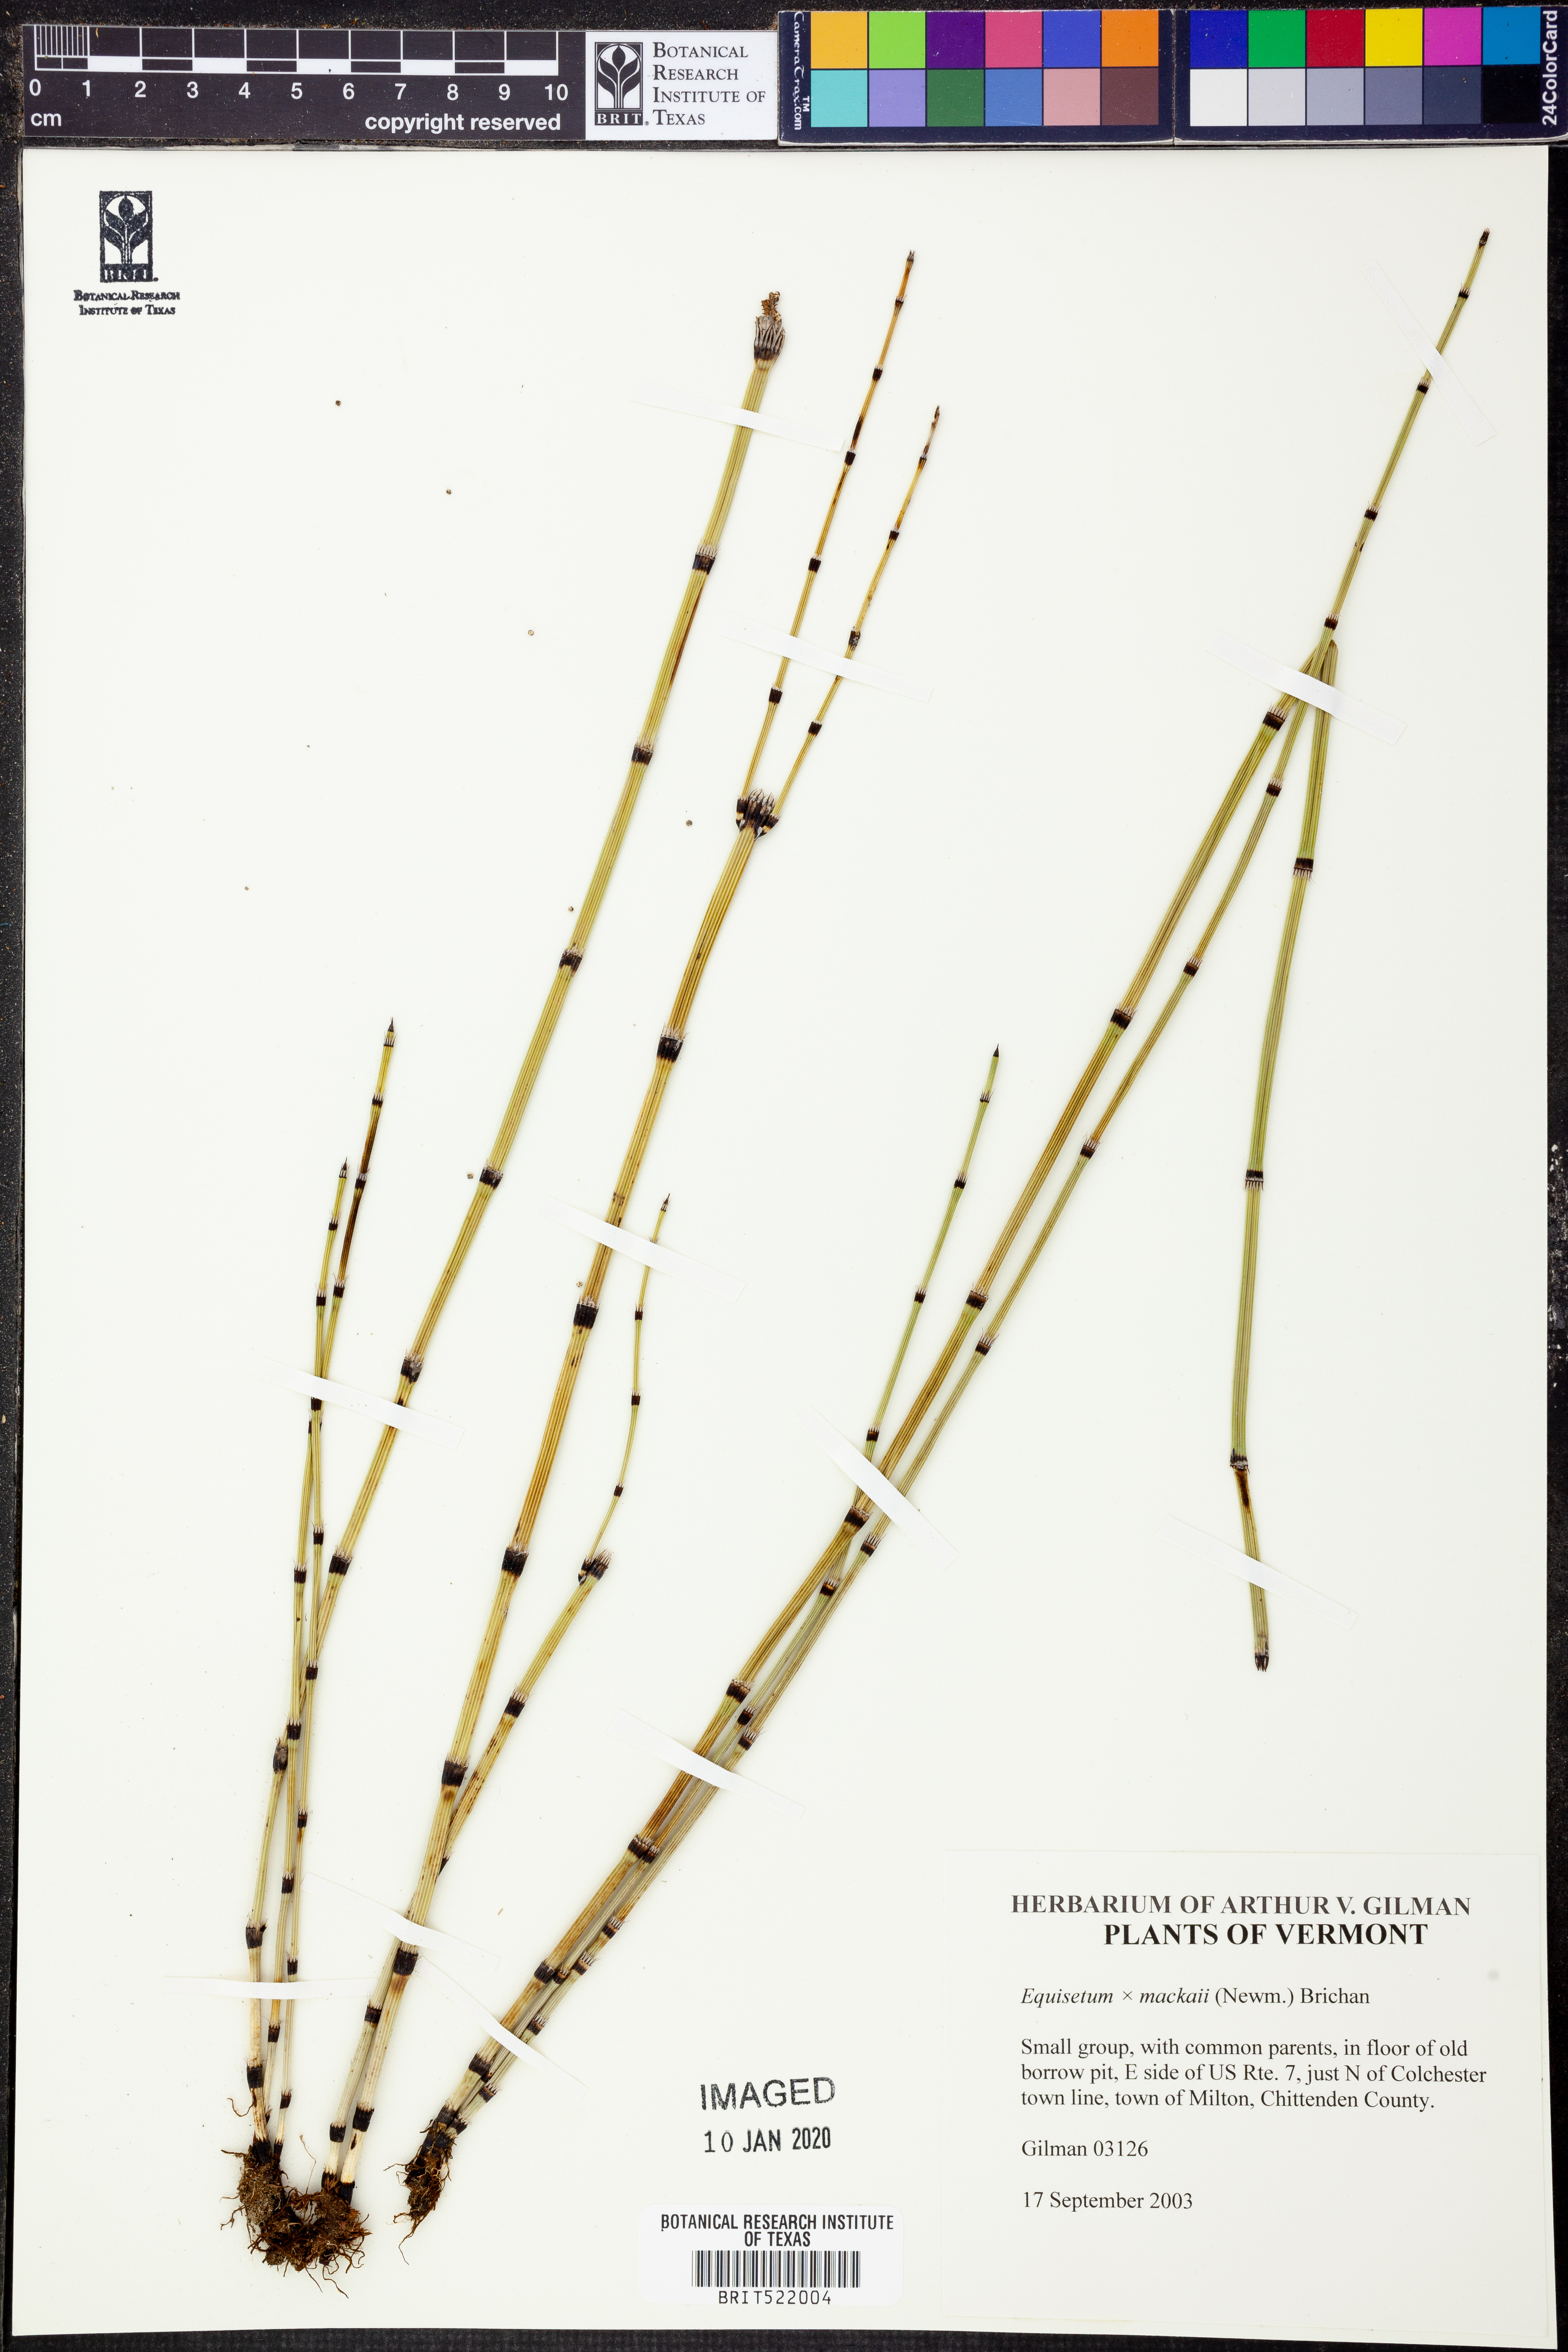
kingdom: Plantae
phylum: Tracheophyta
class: Polypodiopsida
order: Equisetales
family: Equisetaceae
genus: Equisetum
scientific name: Equisetum
